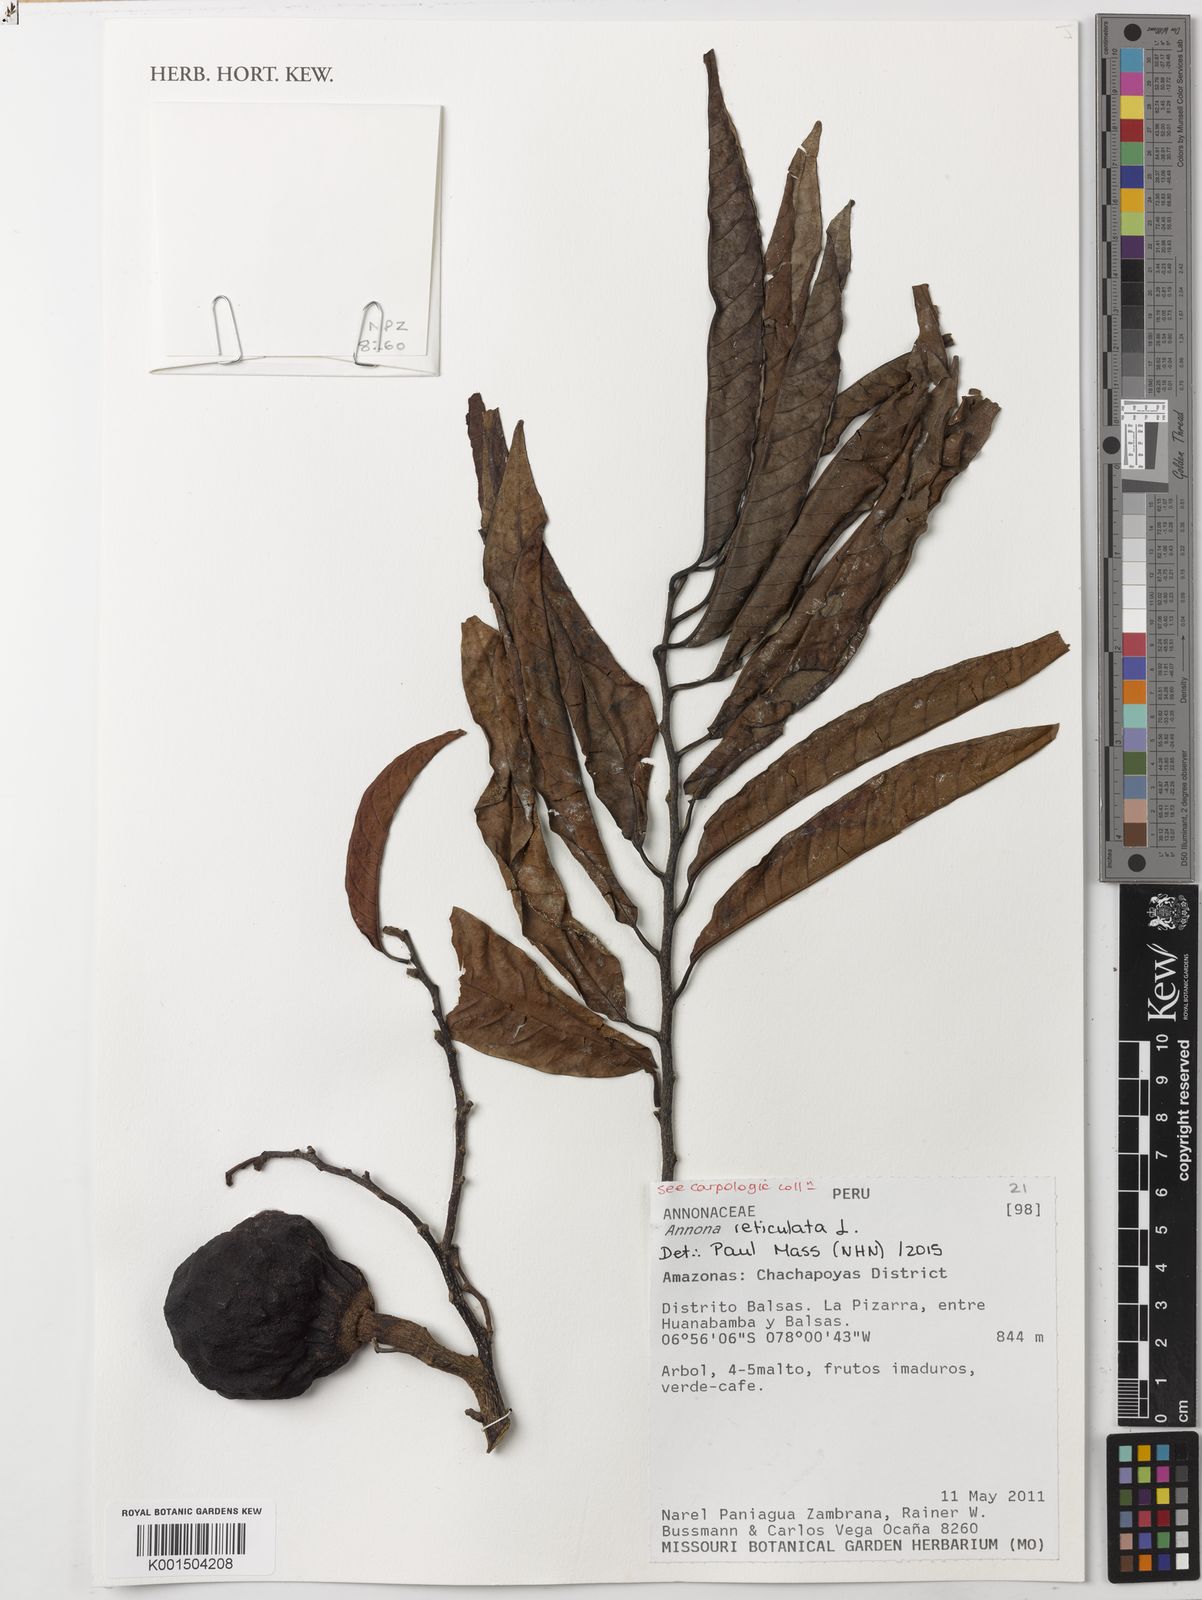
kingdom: Plantae
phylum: Tracheophyta
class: Magnoliopsida
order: Magnoliales
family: Annonaceae
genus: Annona
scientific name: Annona reticulata
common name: Custard apple
